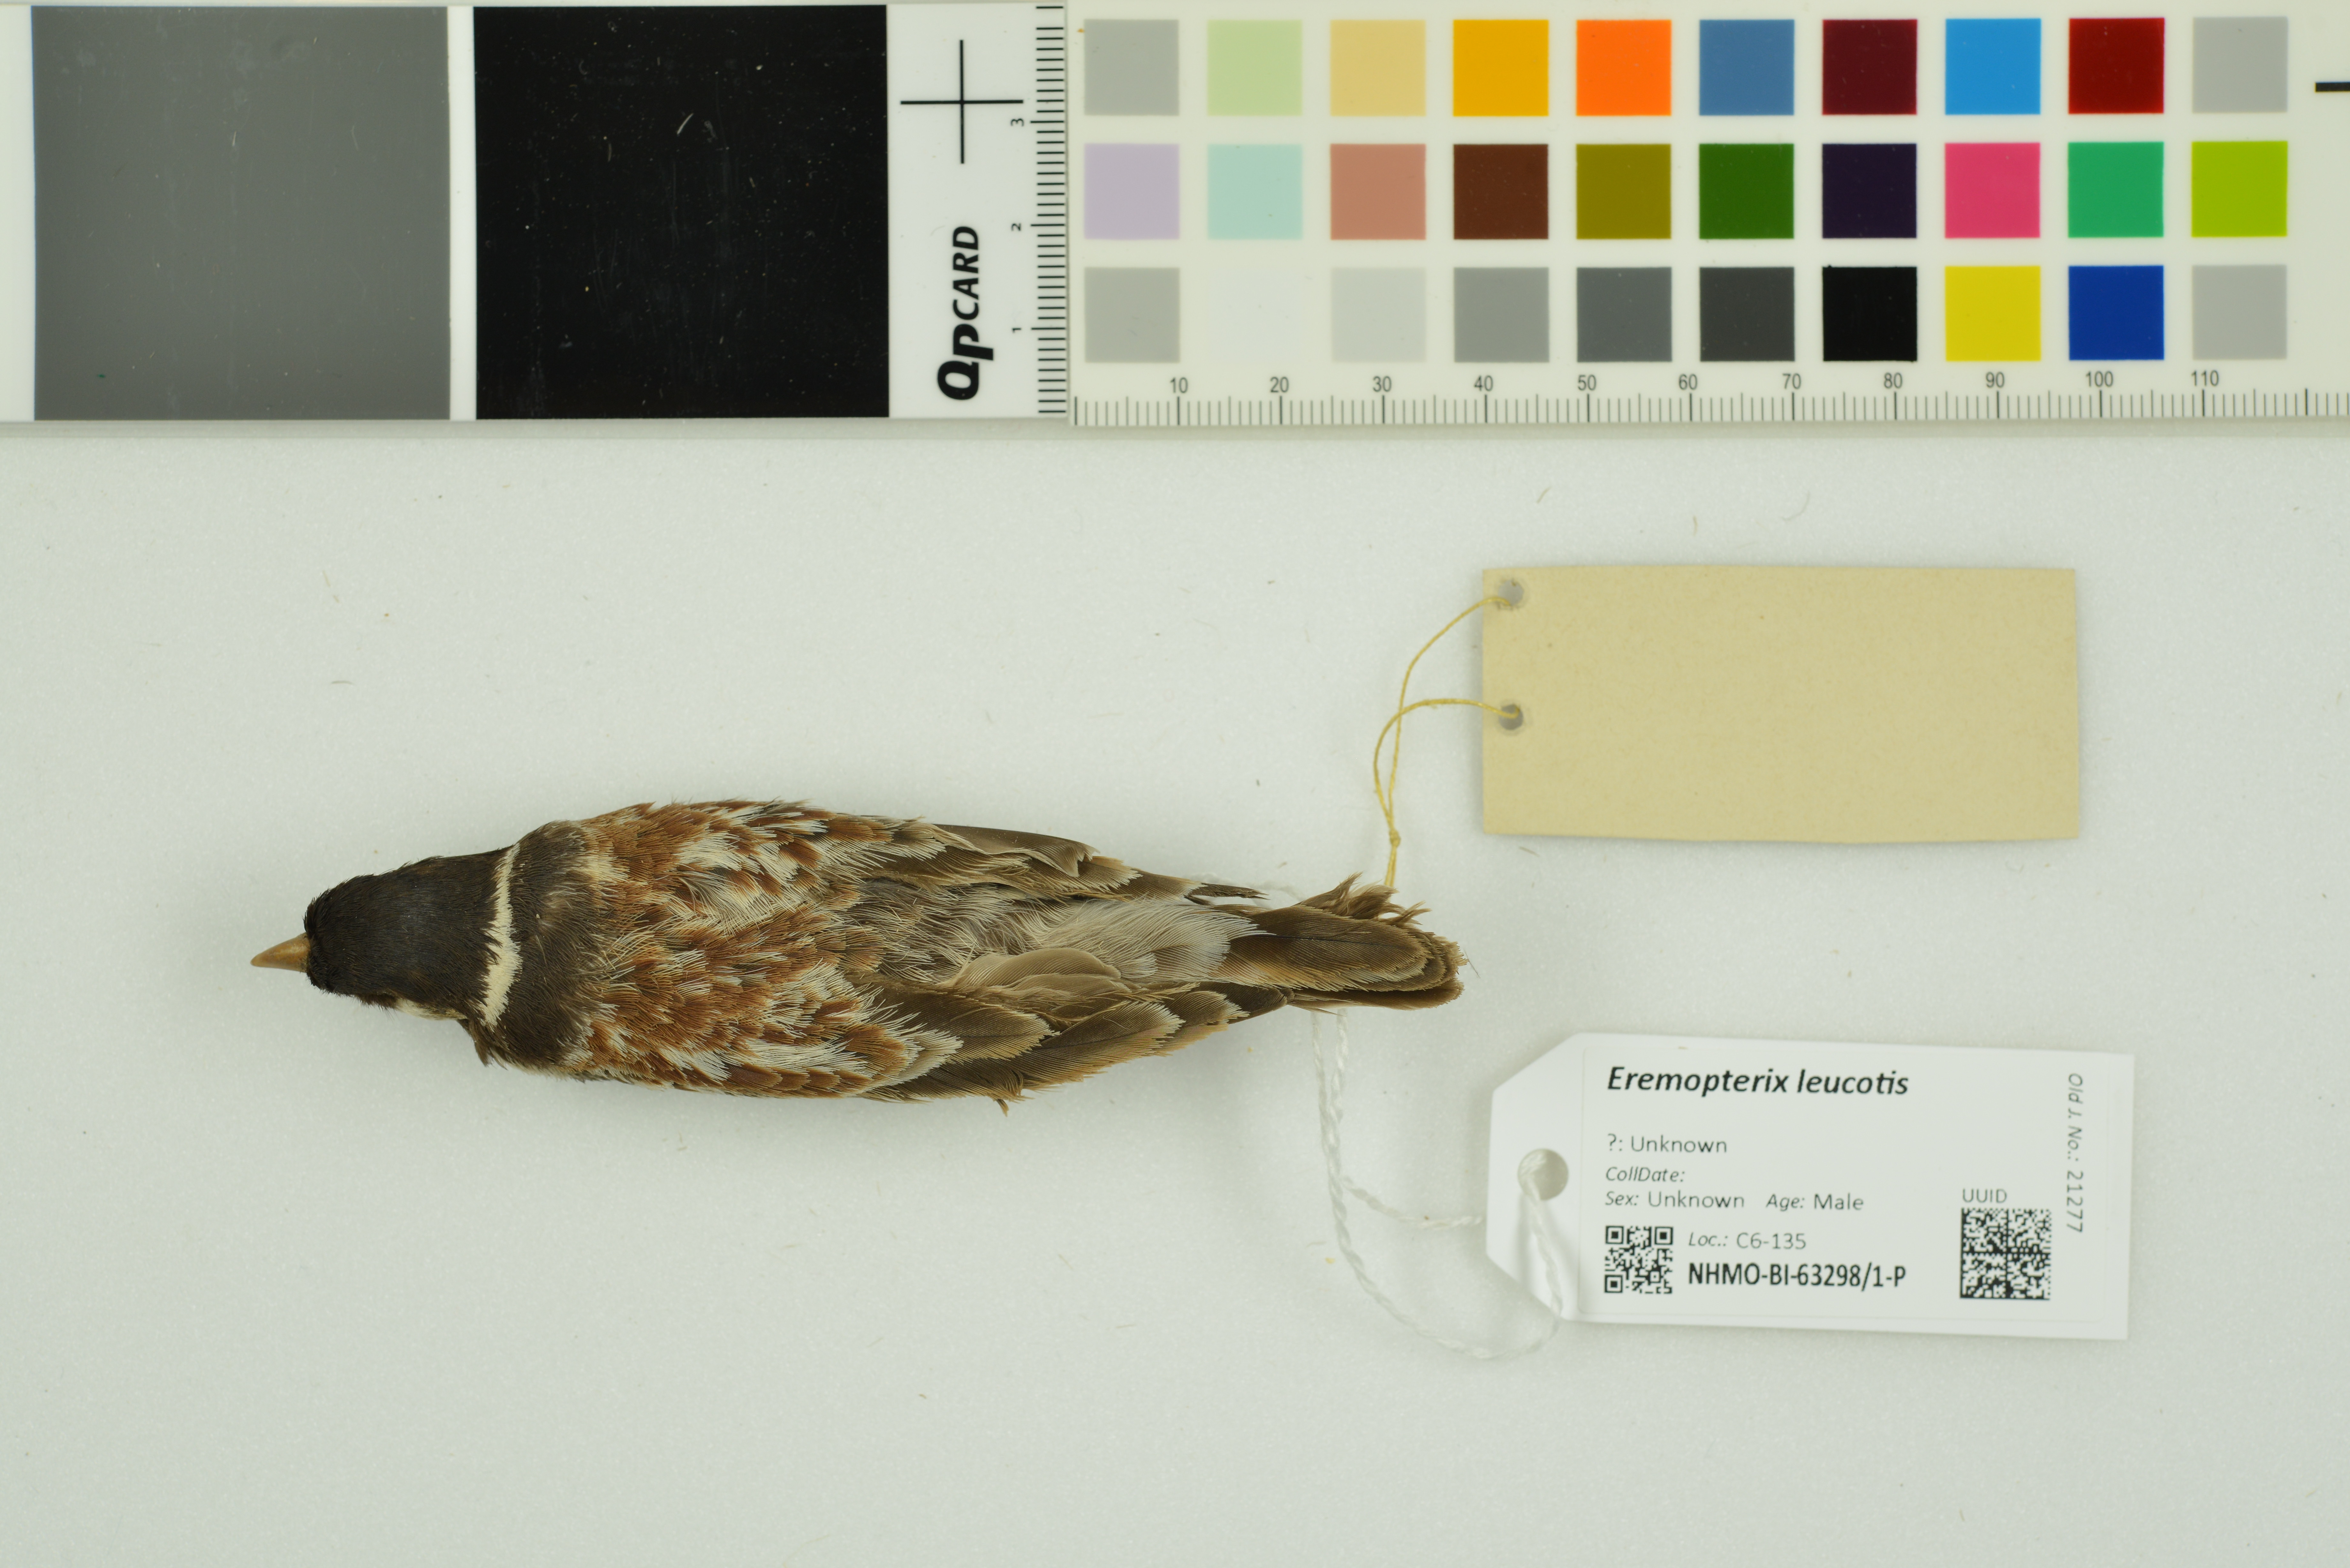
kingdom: Animalia
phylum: Chordata
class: Aves
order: Passeriformes
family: Alaudidae
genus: Eremopterix
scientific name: Eremopterix leucotis
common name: Chestnut-backed sparrow-lark
